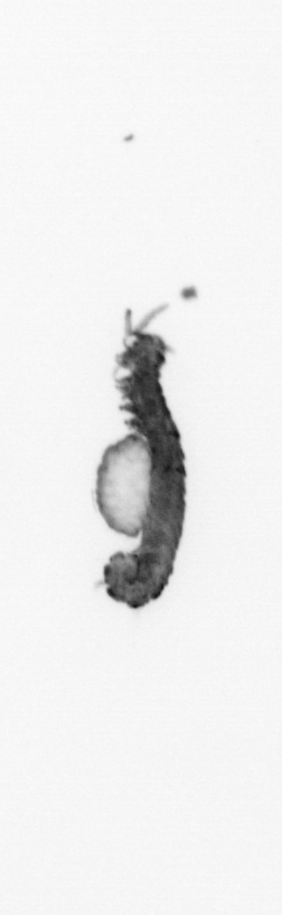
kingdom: Animalia
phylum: Annelida
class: Polychaeta
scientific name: Polychaeta
